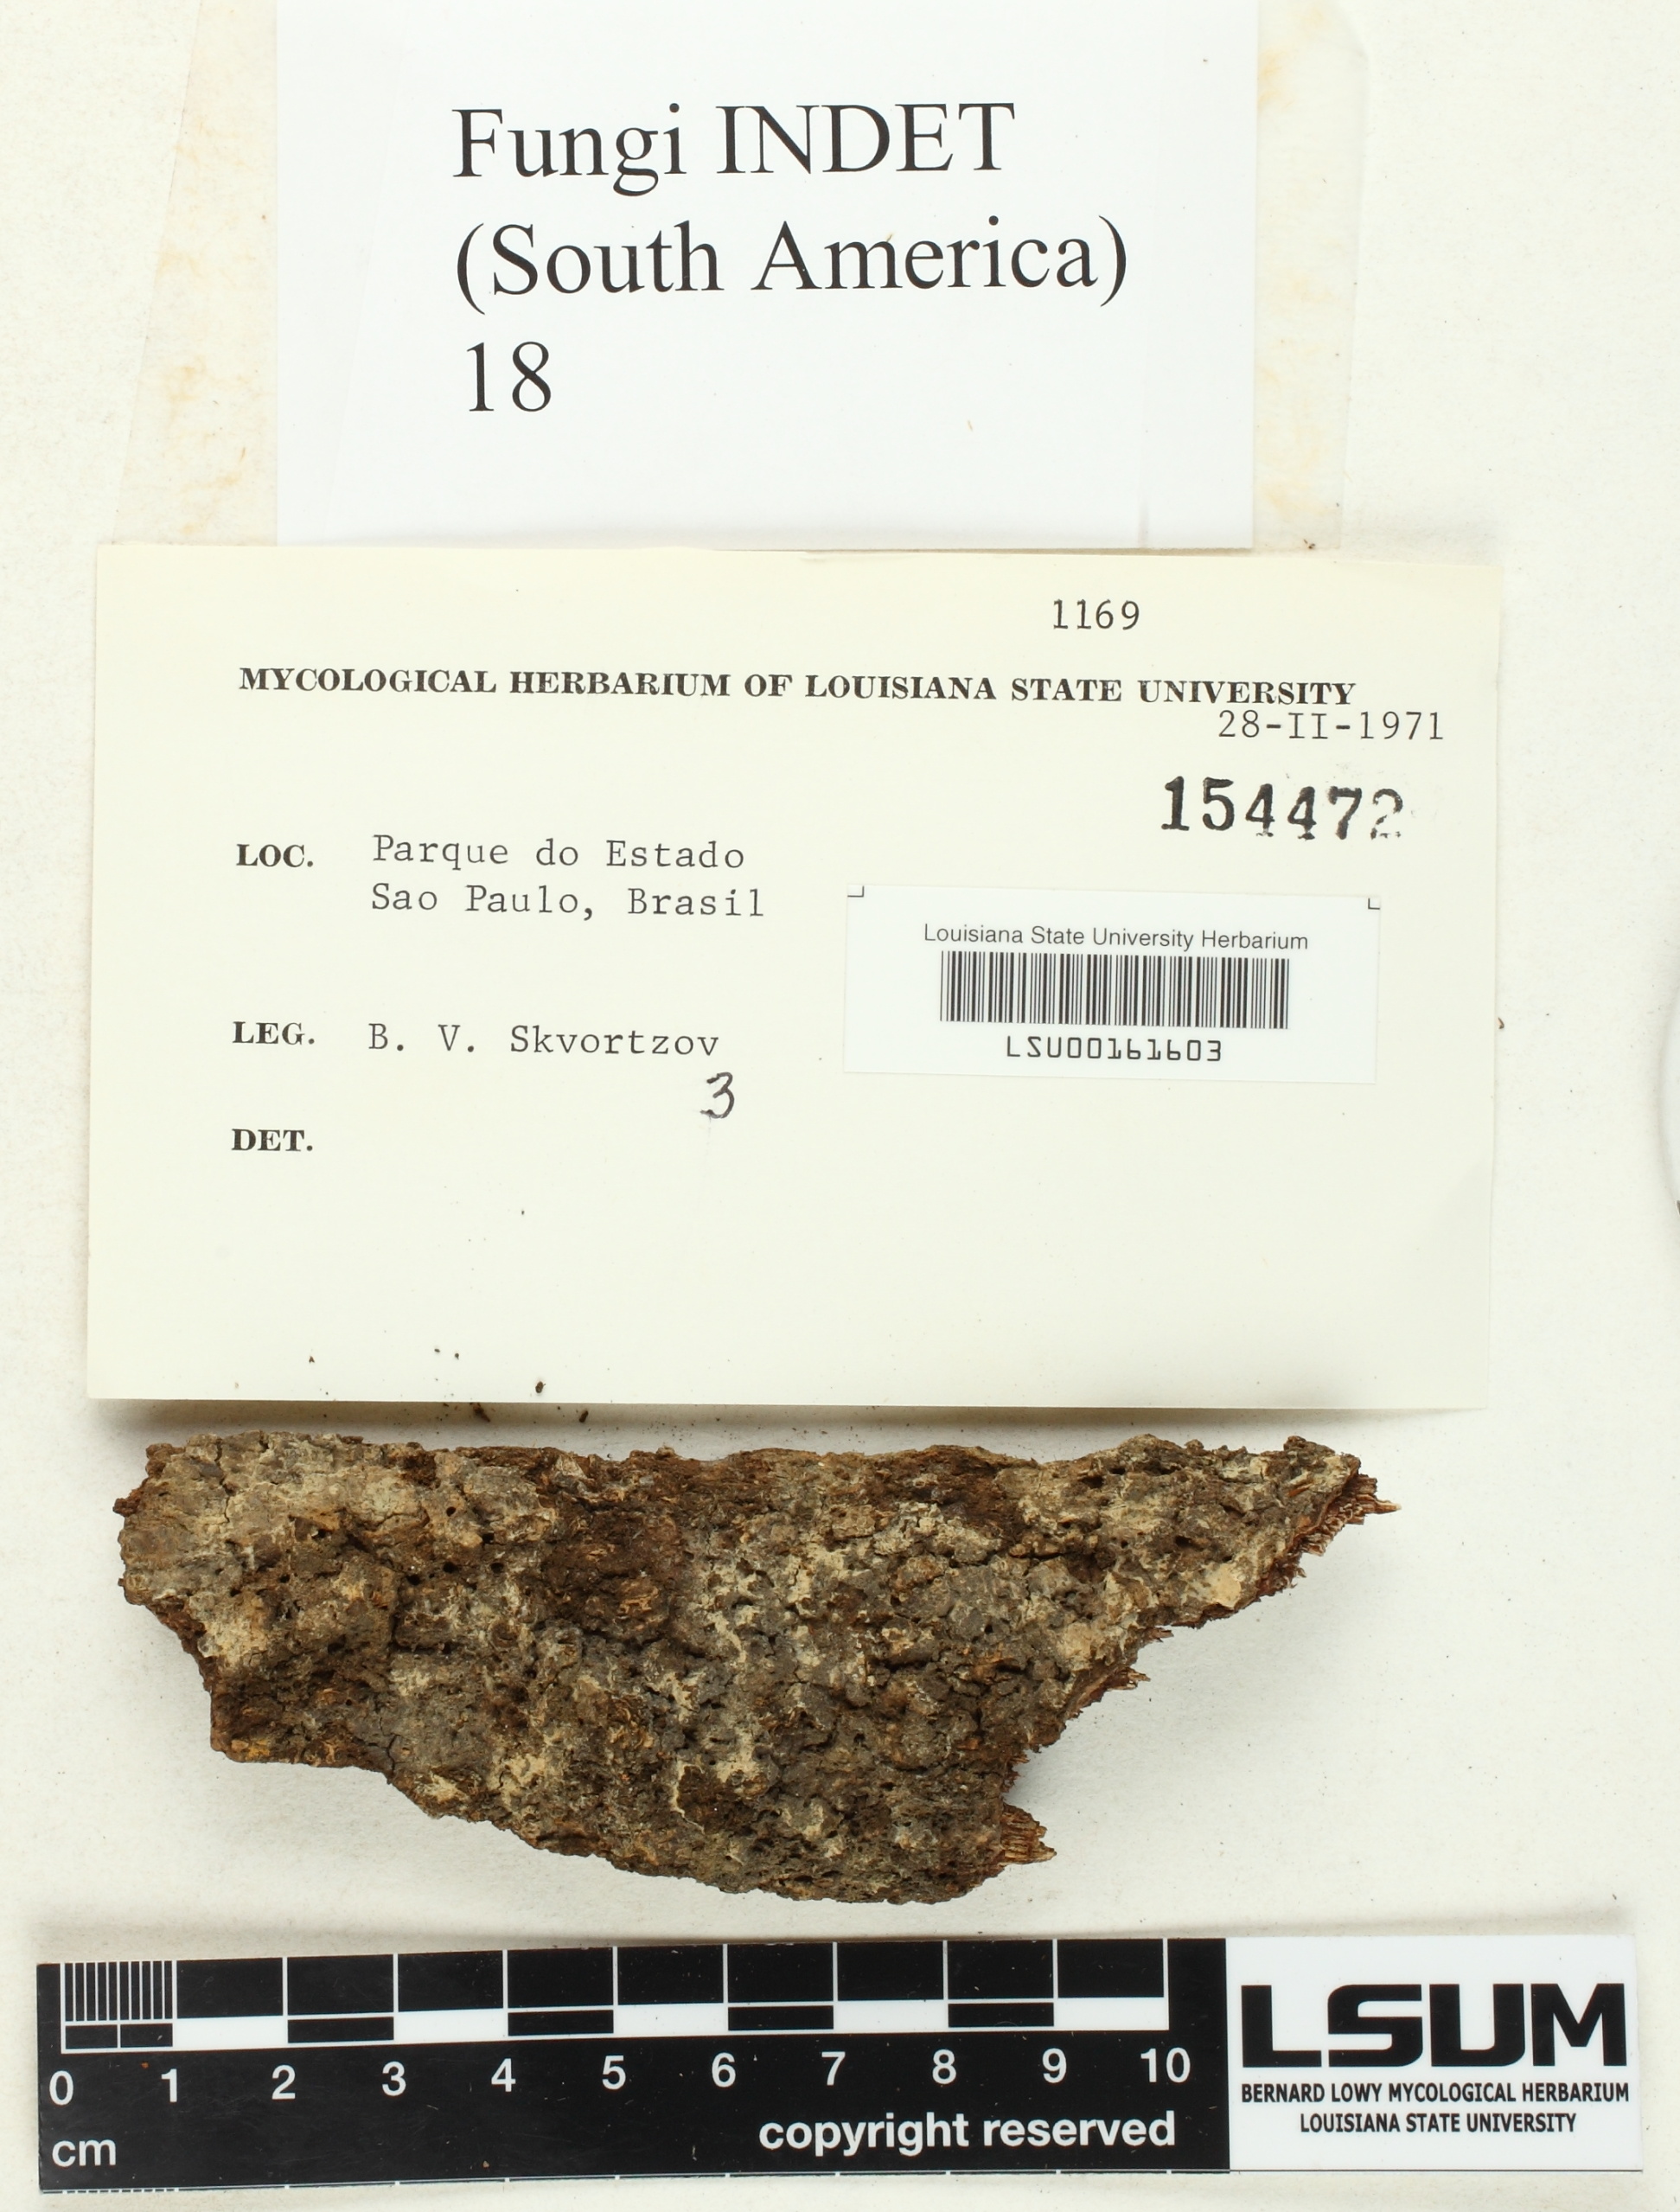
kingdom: Fungi
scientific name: Fungi
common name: Fungi
